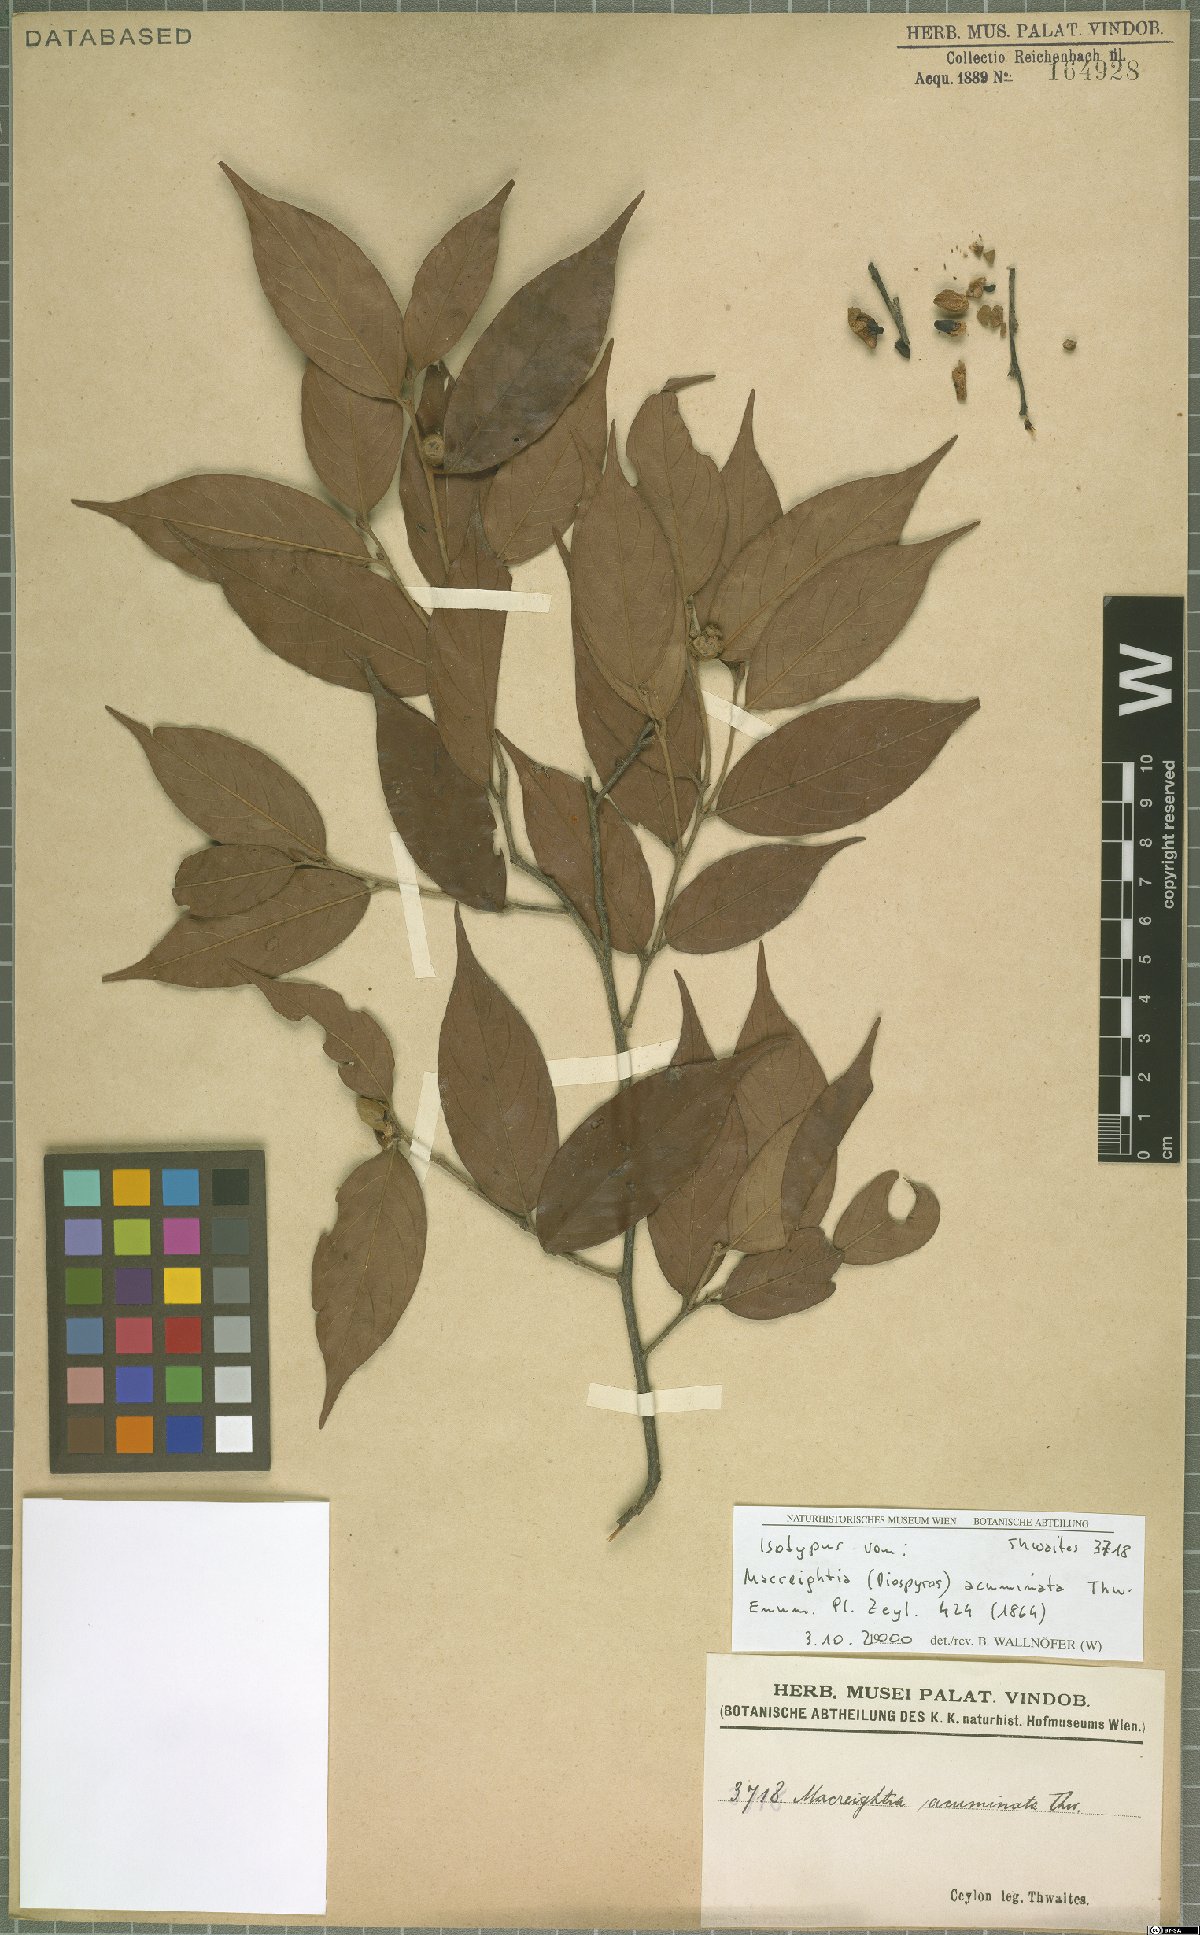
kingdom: Plantae
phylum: Tracheophyta
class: Magnoliopsida
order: Ericales
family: Ebenaceae
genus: Diospyros
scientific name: Diospyros acuminata
